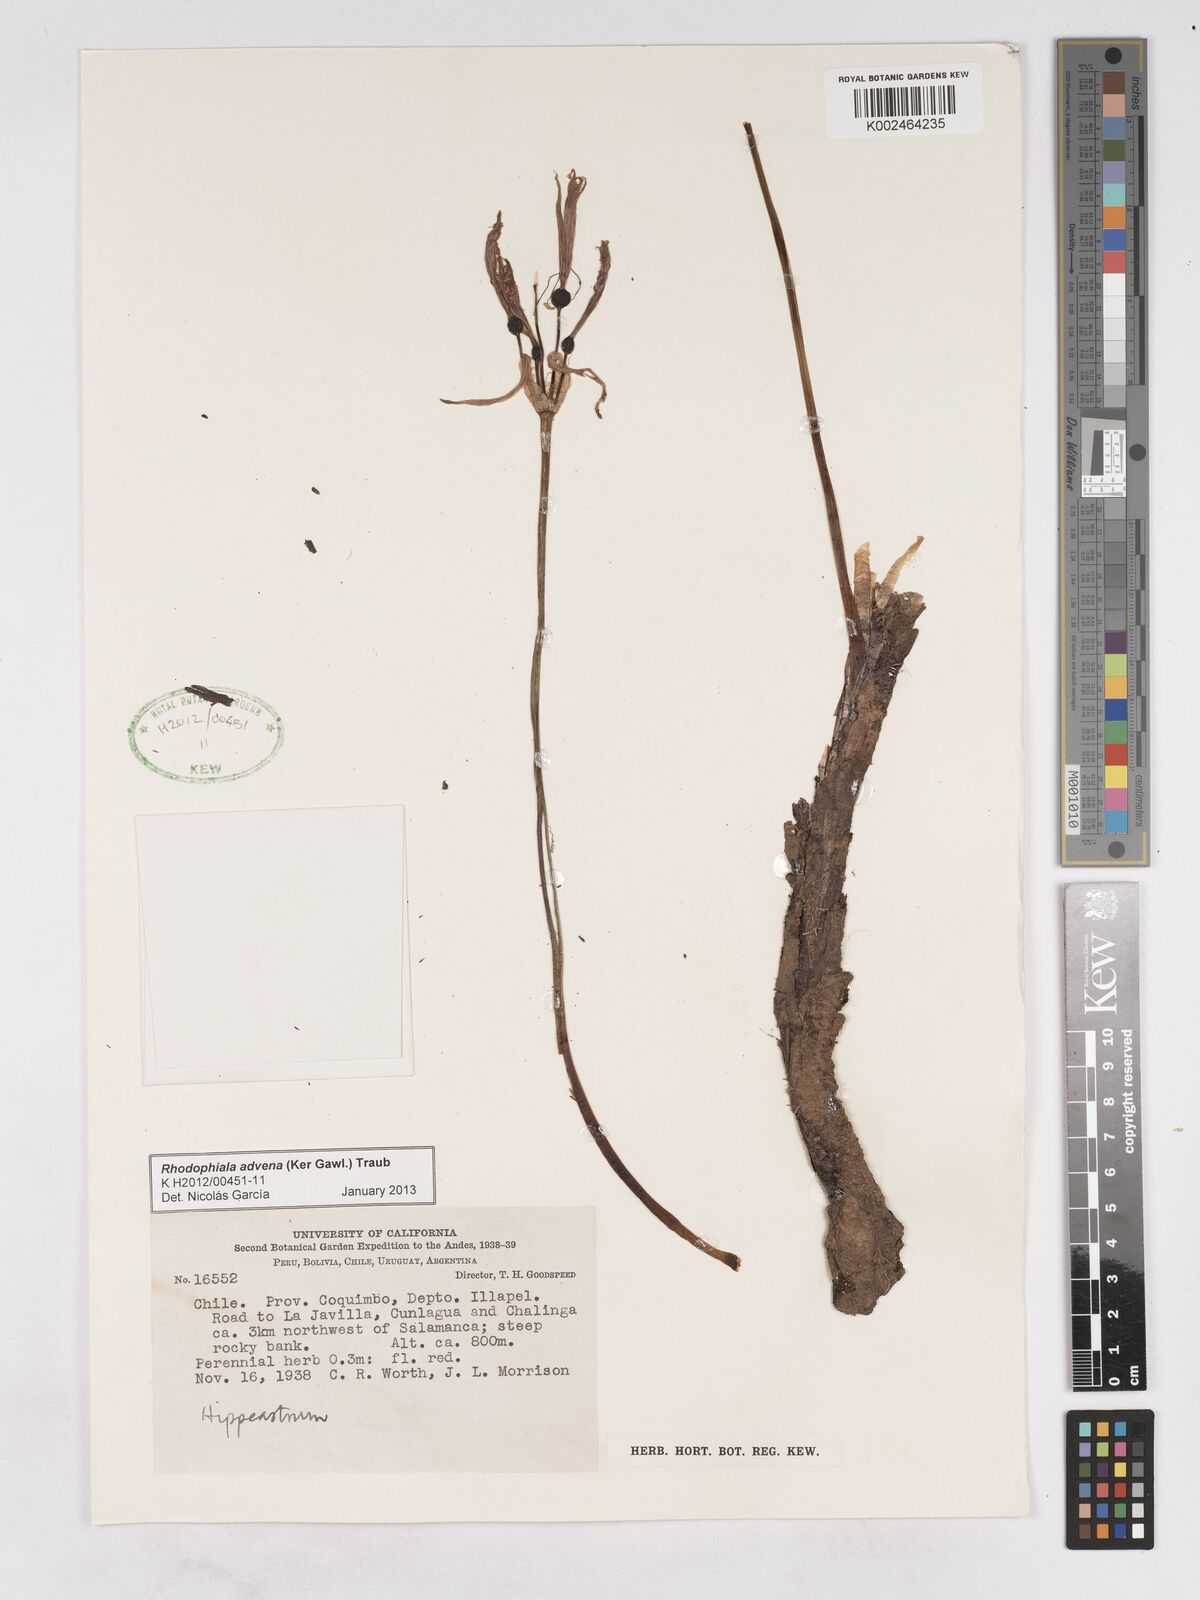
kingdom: Plantae
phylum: Tracheophyta
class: Liliopsida
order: Asparagales
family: Amaryllidaceae
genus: Zephyranthes
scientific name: Zephyranthes advena
